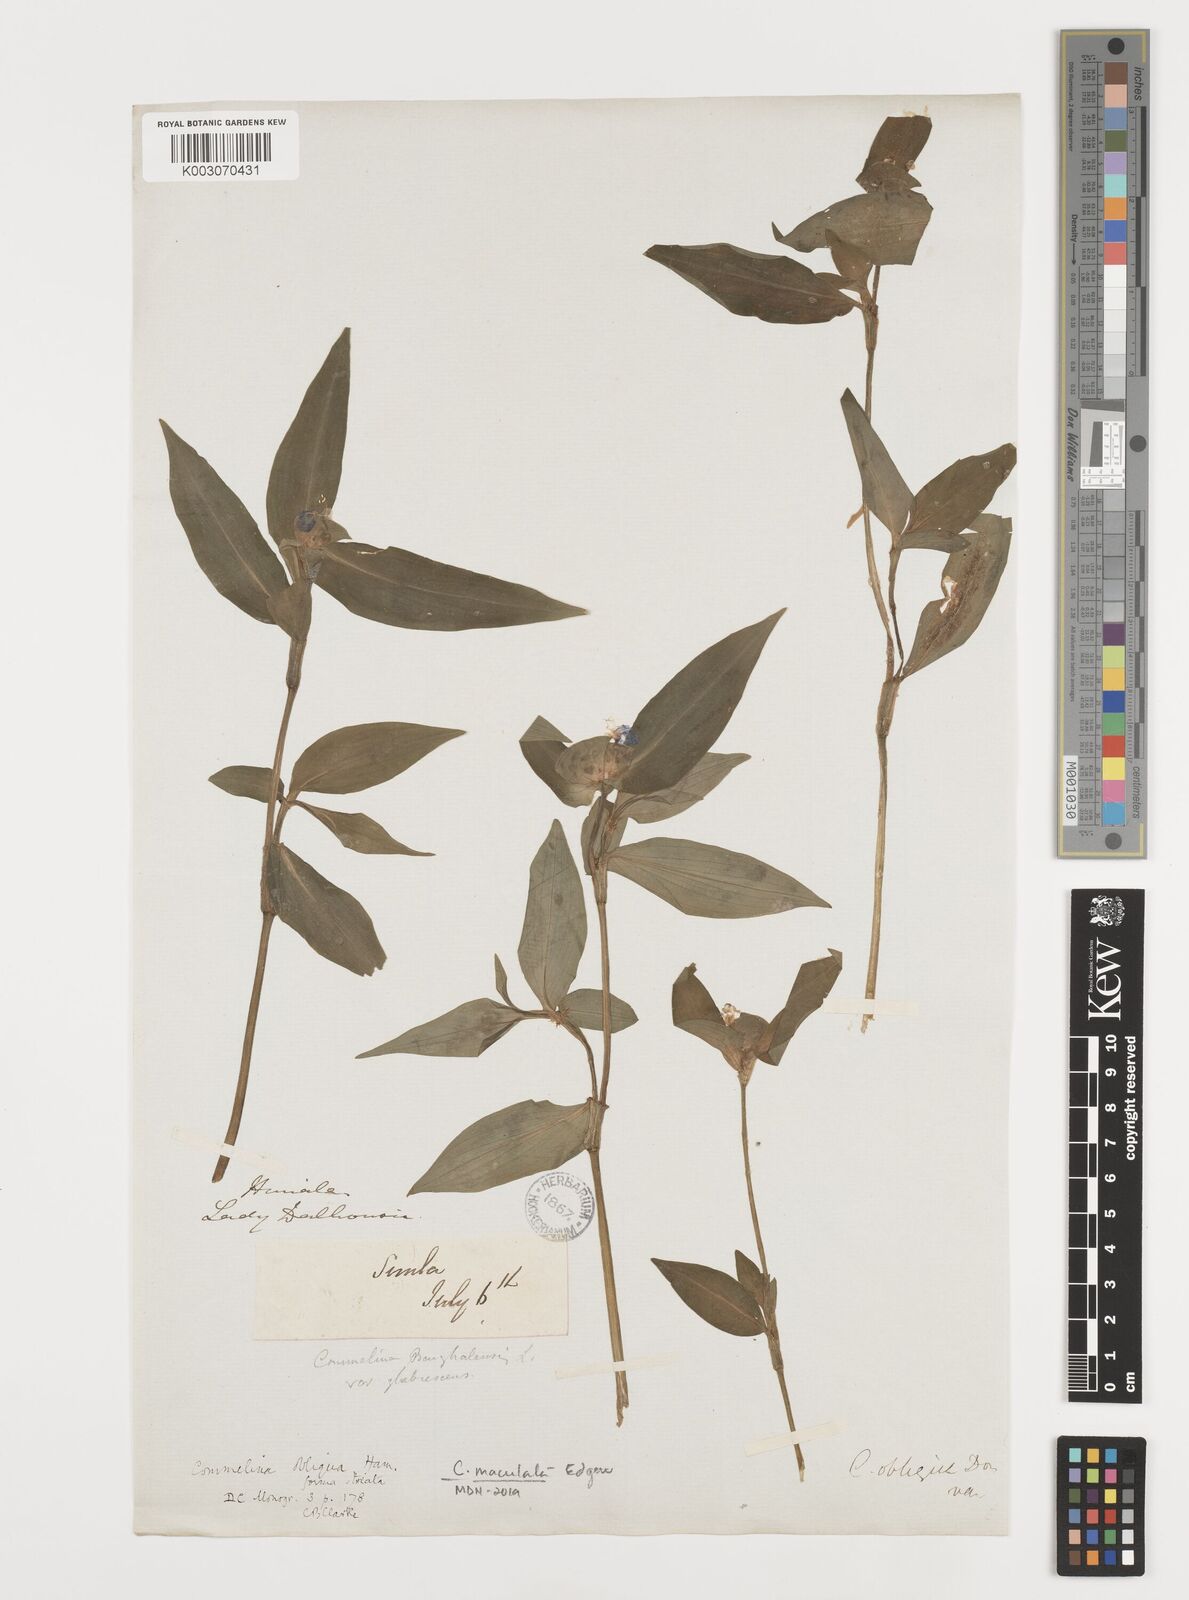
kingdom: Plantae
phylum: Tracheophyta
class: Liliopsida
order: Commelinales
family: Commelinaceae
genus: Commelina
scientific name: Commelina maculata
